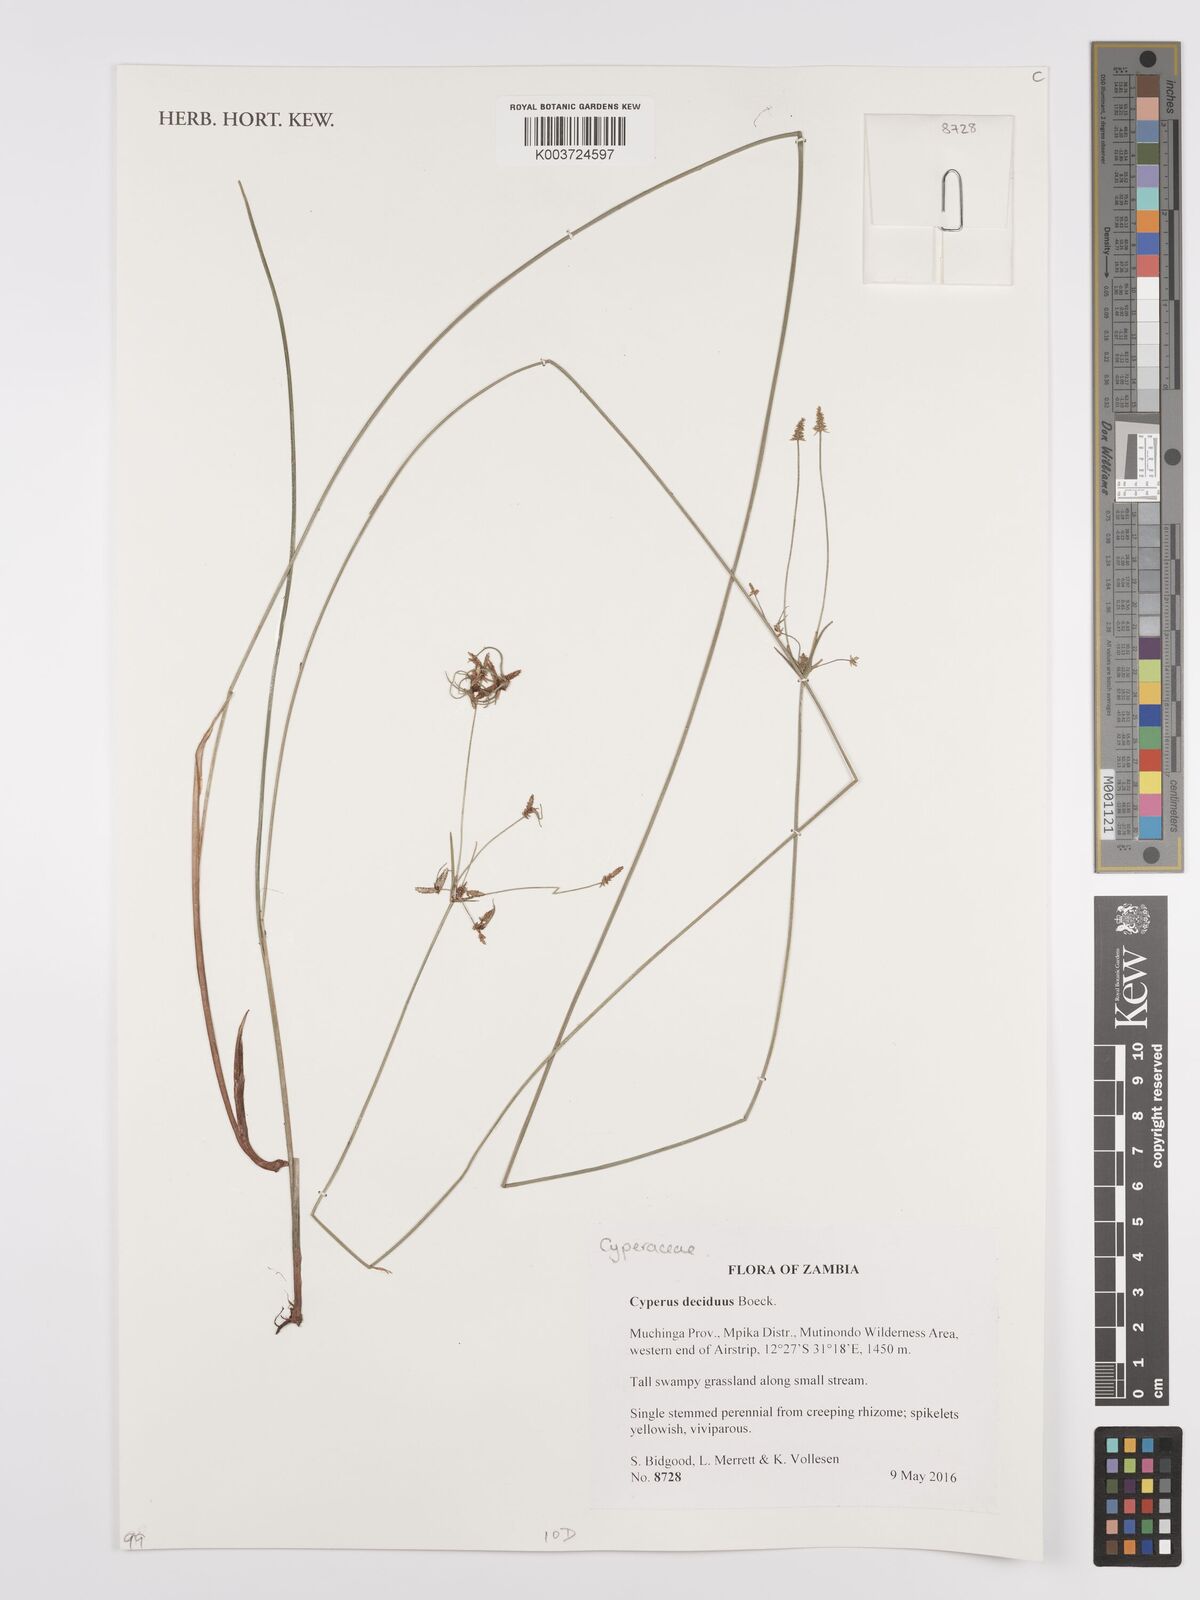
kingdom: Plantae
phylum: Tracheophyta
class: Liliopsida
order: Poales
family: Cyperaceae
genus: Cyperus
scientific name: Cyperus deciduus
